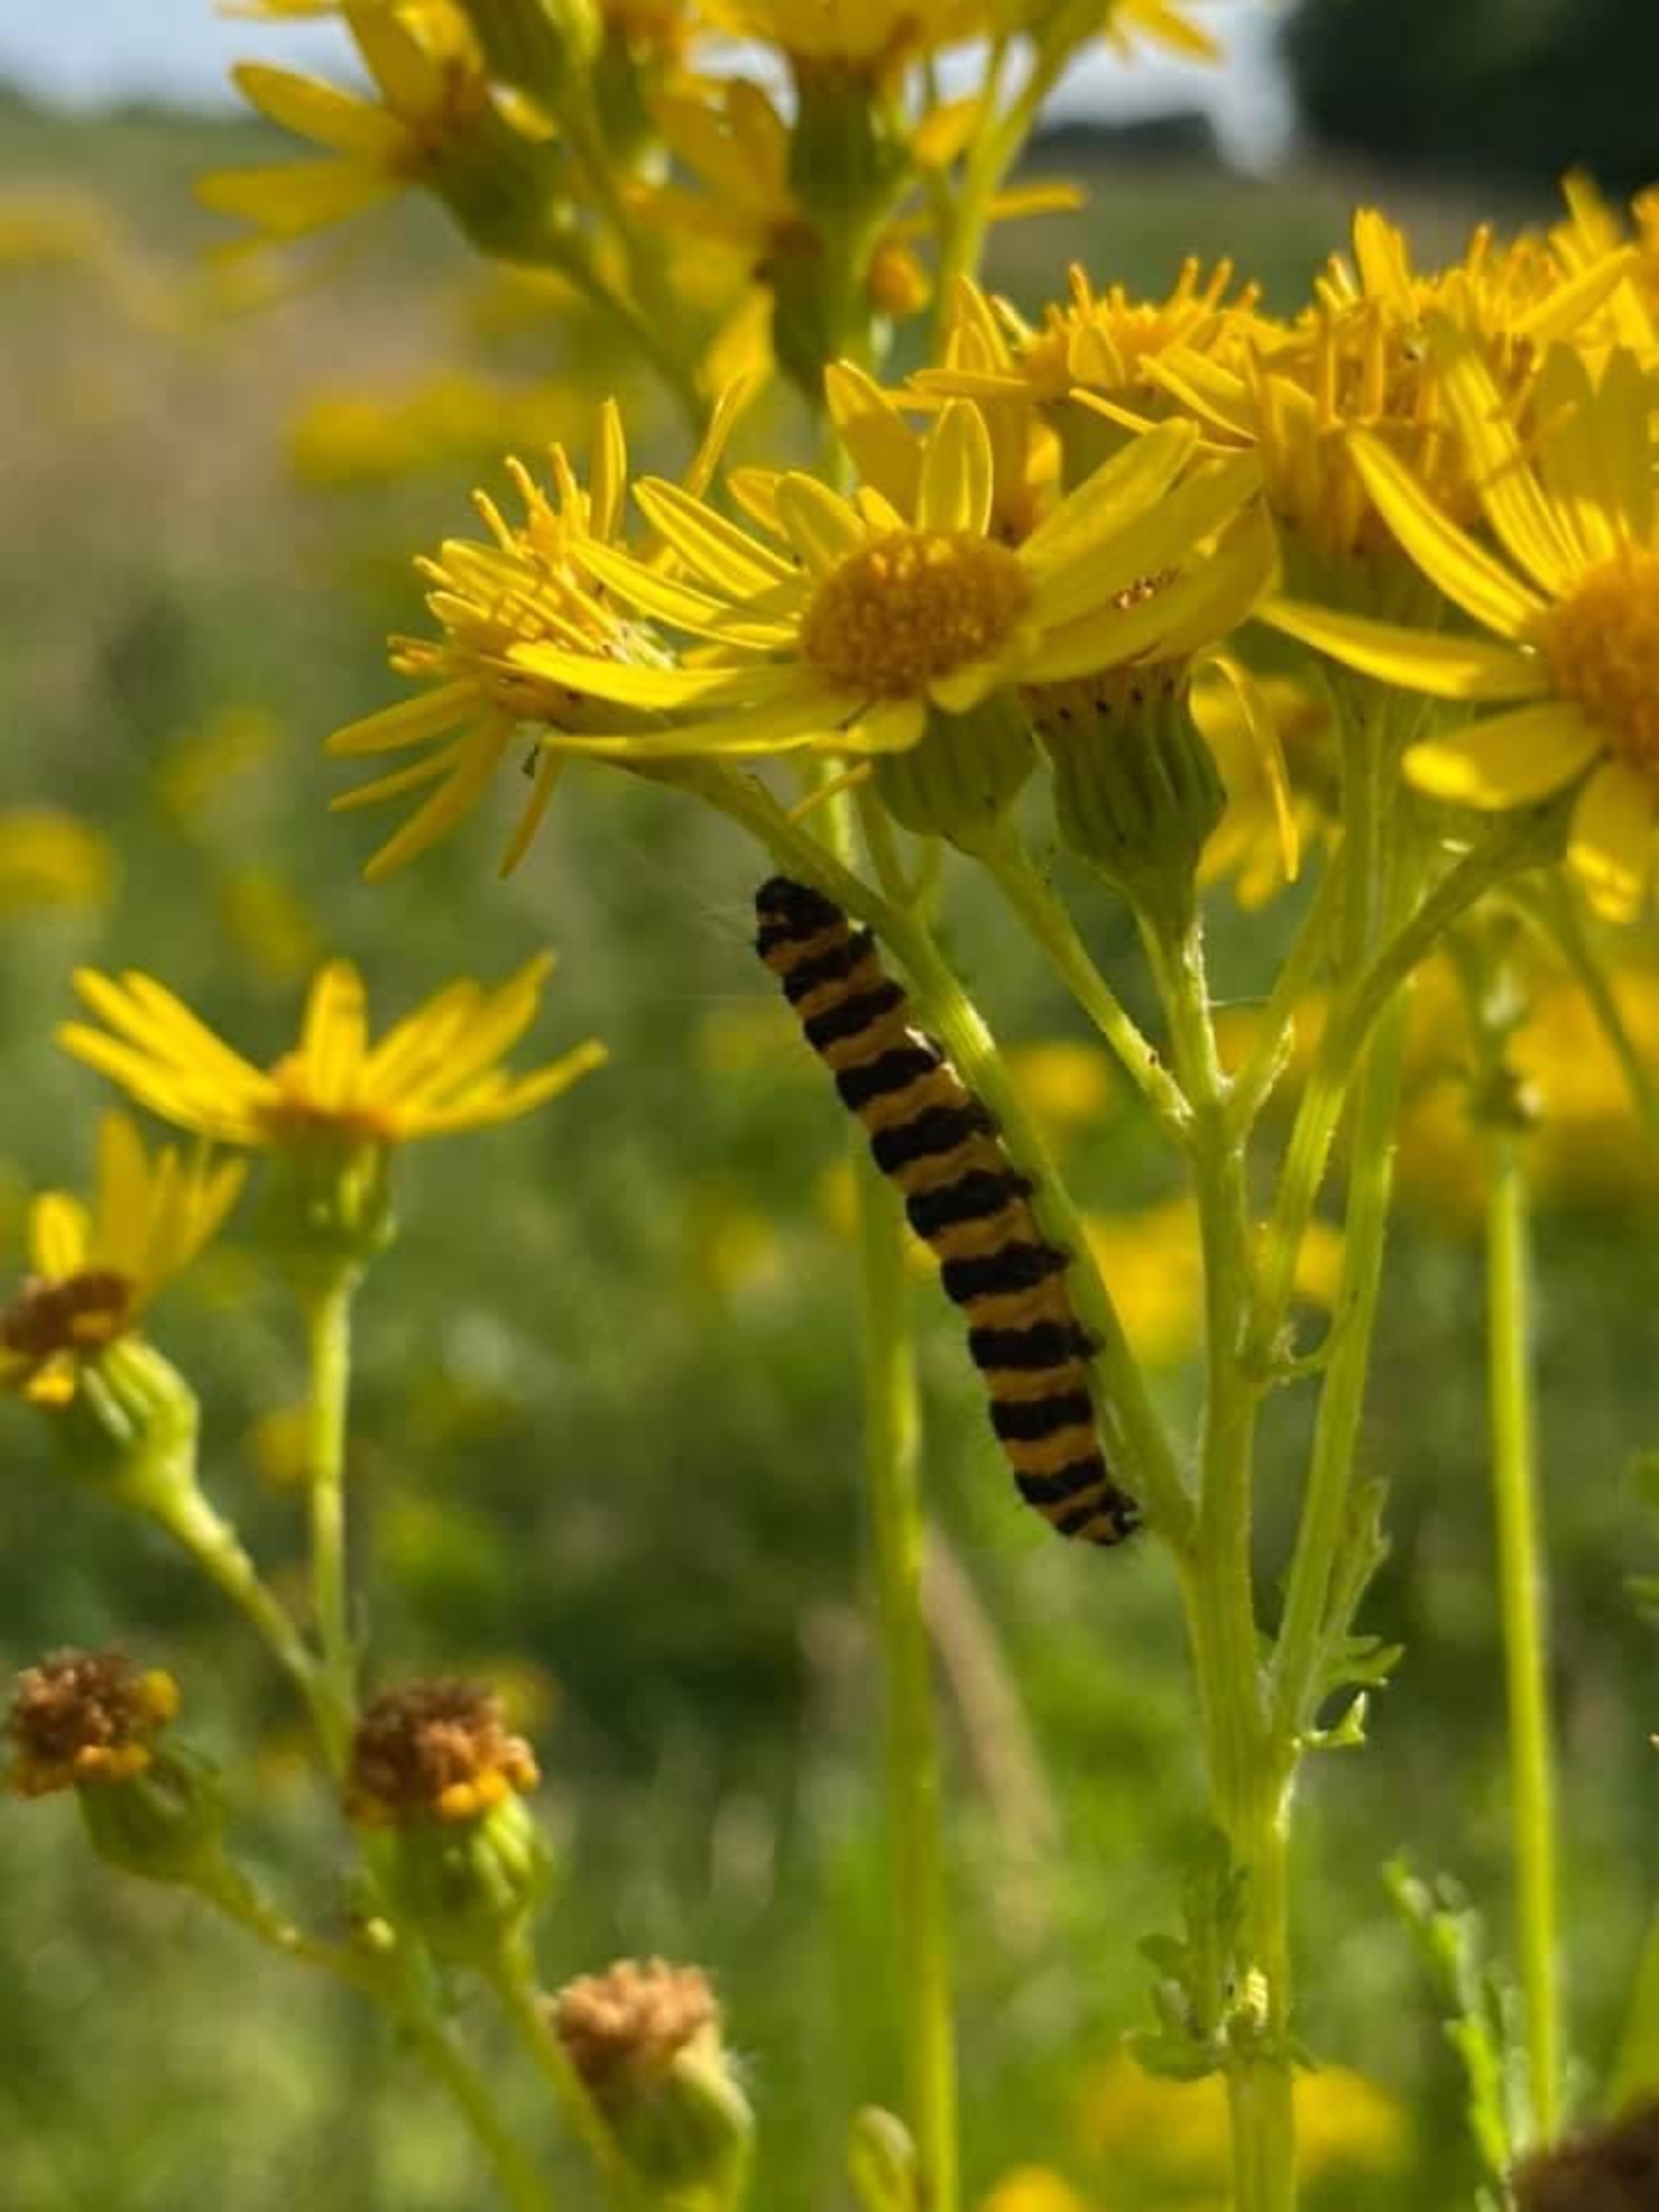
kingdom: Animalia
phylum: Arthropoda
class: Insecta
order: Lepidoptera
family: Erebidae
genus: Tyria
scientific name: Tyria jacobaeae
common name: Blodplet
